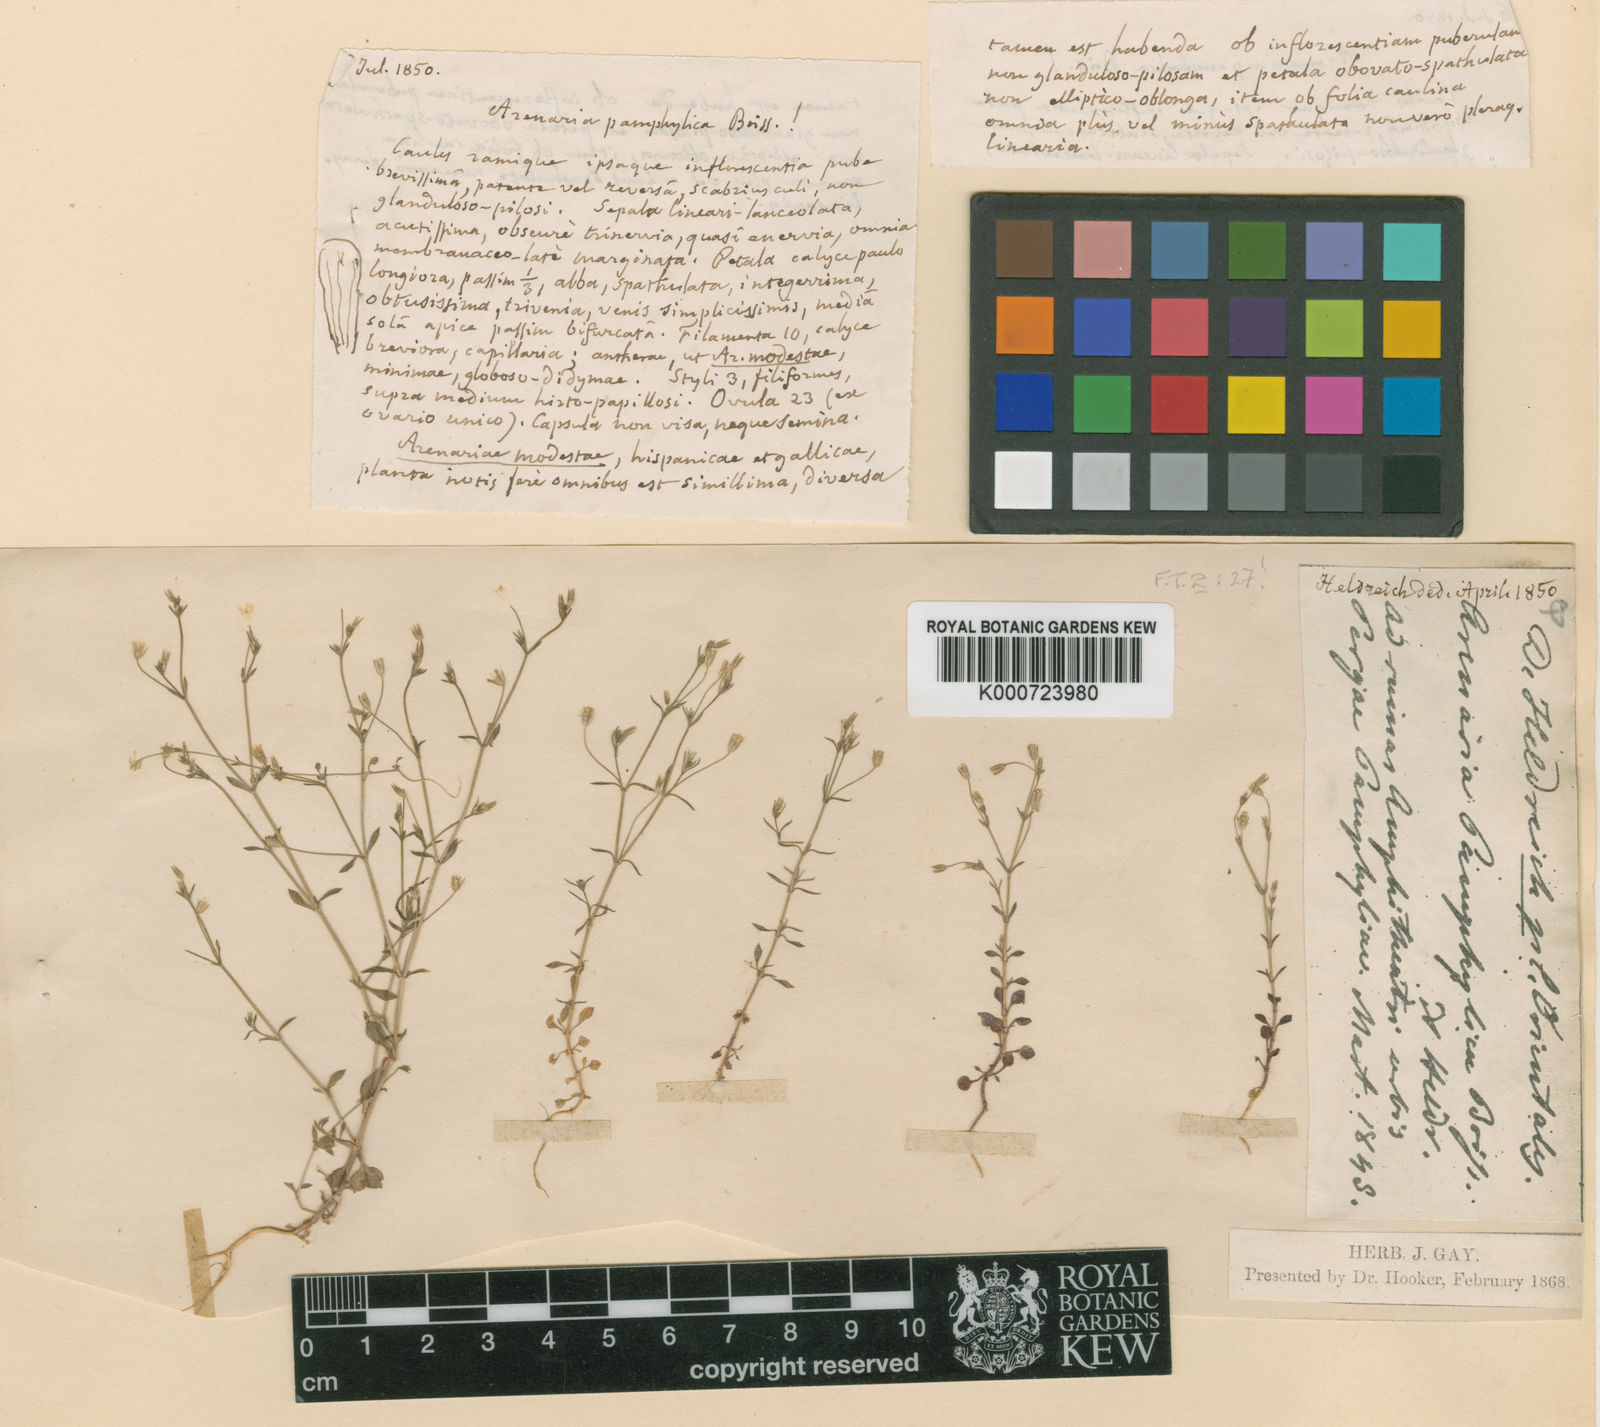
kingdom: Plantae
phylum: Tracheophyta
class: Magnoliopsida
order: Caryophyllales
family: Caryophyllaceae
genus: Arenaria
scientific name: Arenaria pamphylica
